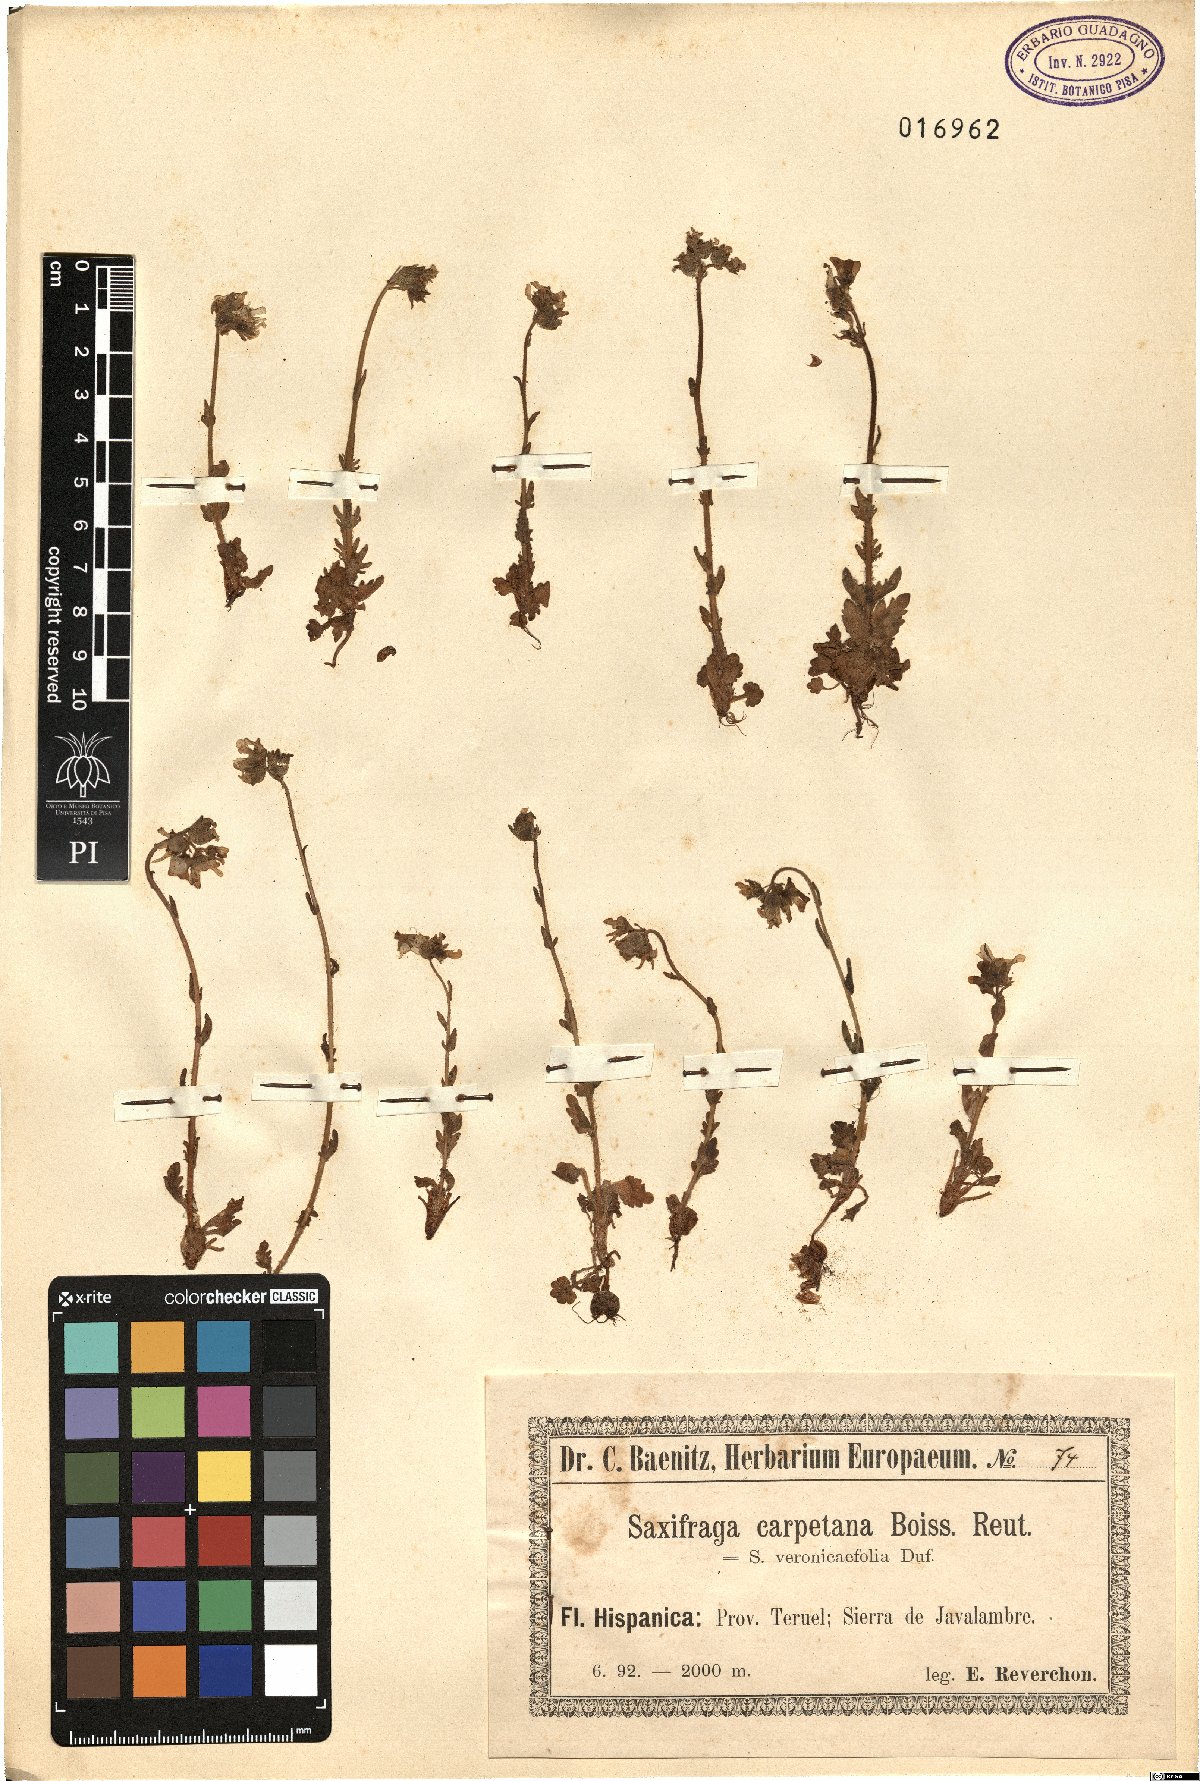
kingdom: Plantae
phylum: Tracheophyta
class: Magnoliopsida
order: Saxifragales
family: Saxifragaceae
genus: Saxifraga
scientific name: Saxifraga carpetana
